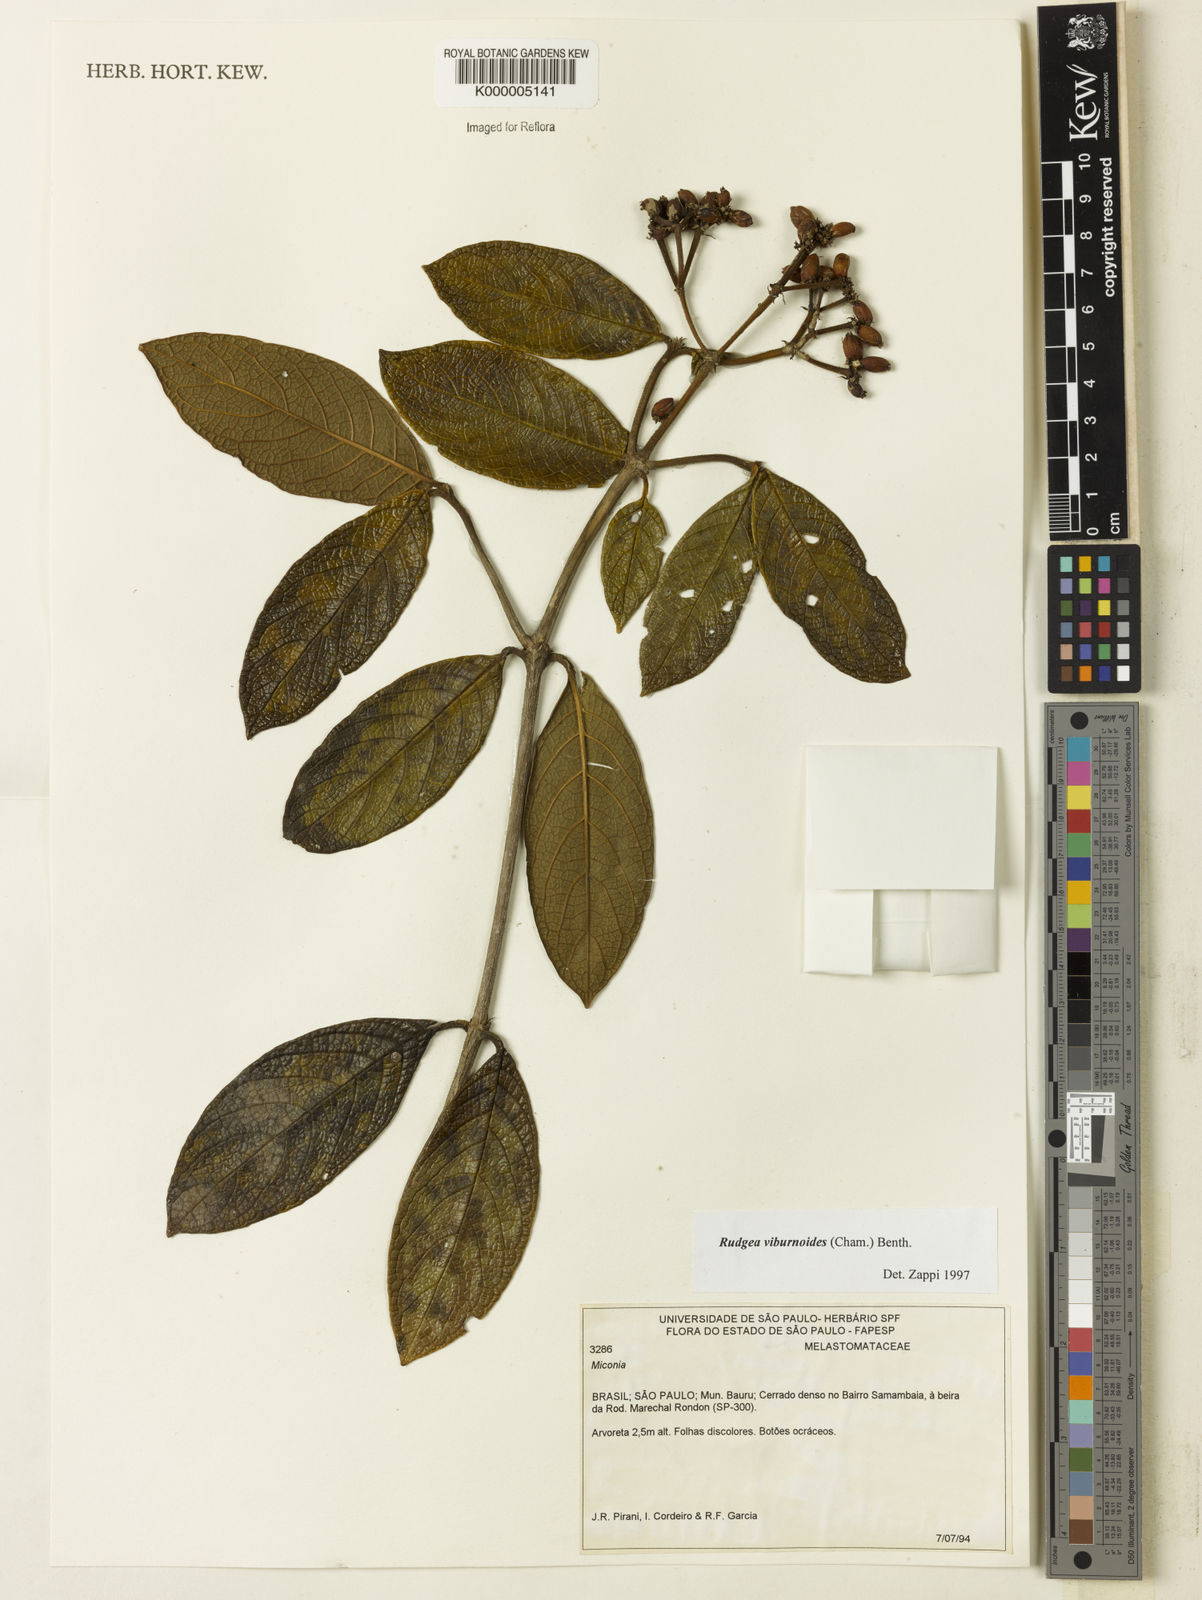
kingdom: Plantae
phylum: Tracheophyta
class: Magnoliopsida
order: Gentianales
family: Rubiaceae
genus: Rudgea
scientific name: Rudgea viburnoides
